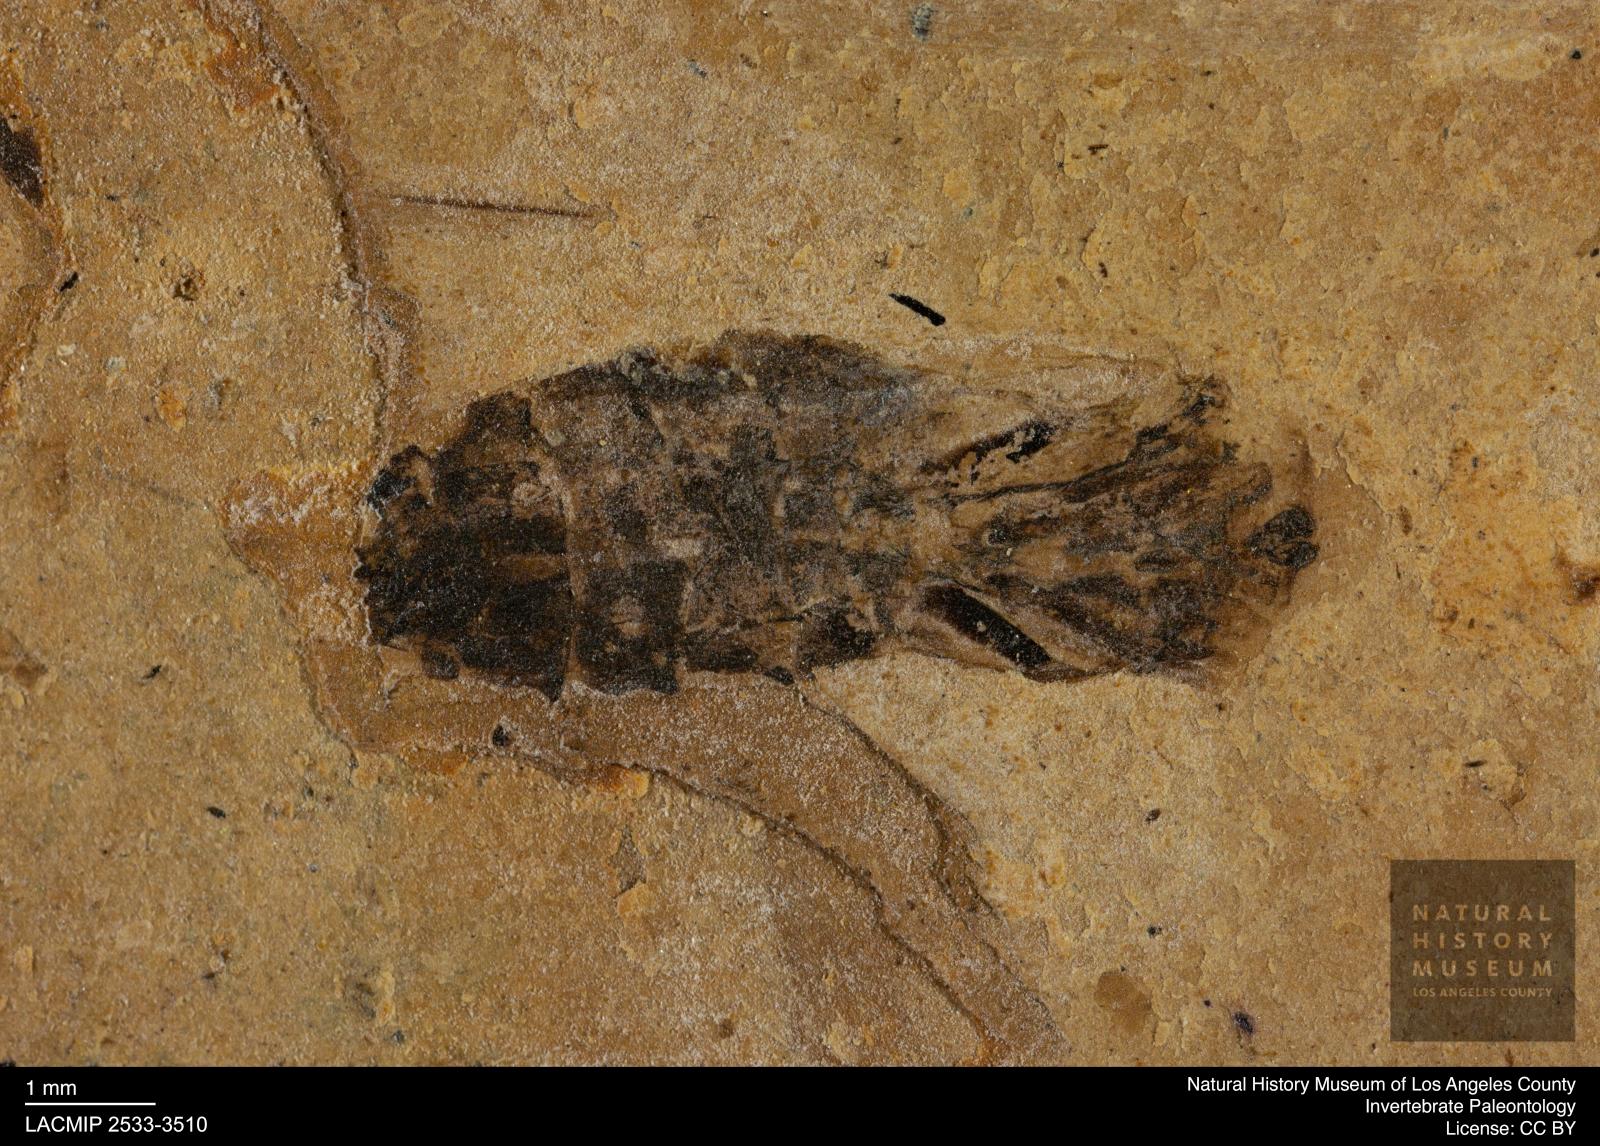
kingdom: Animalia
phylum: Arthropoda
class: Insecta
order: Hemiptera
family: Notonectidae
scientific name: Notonectidae
